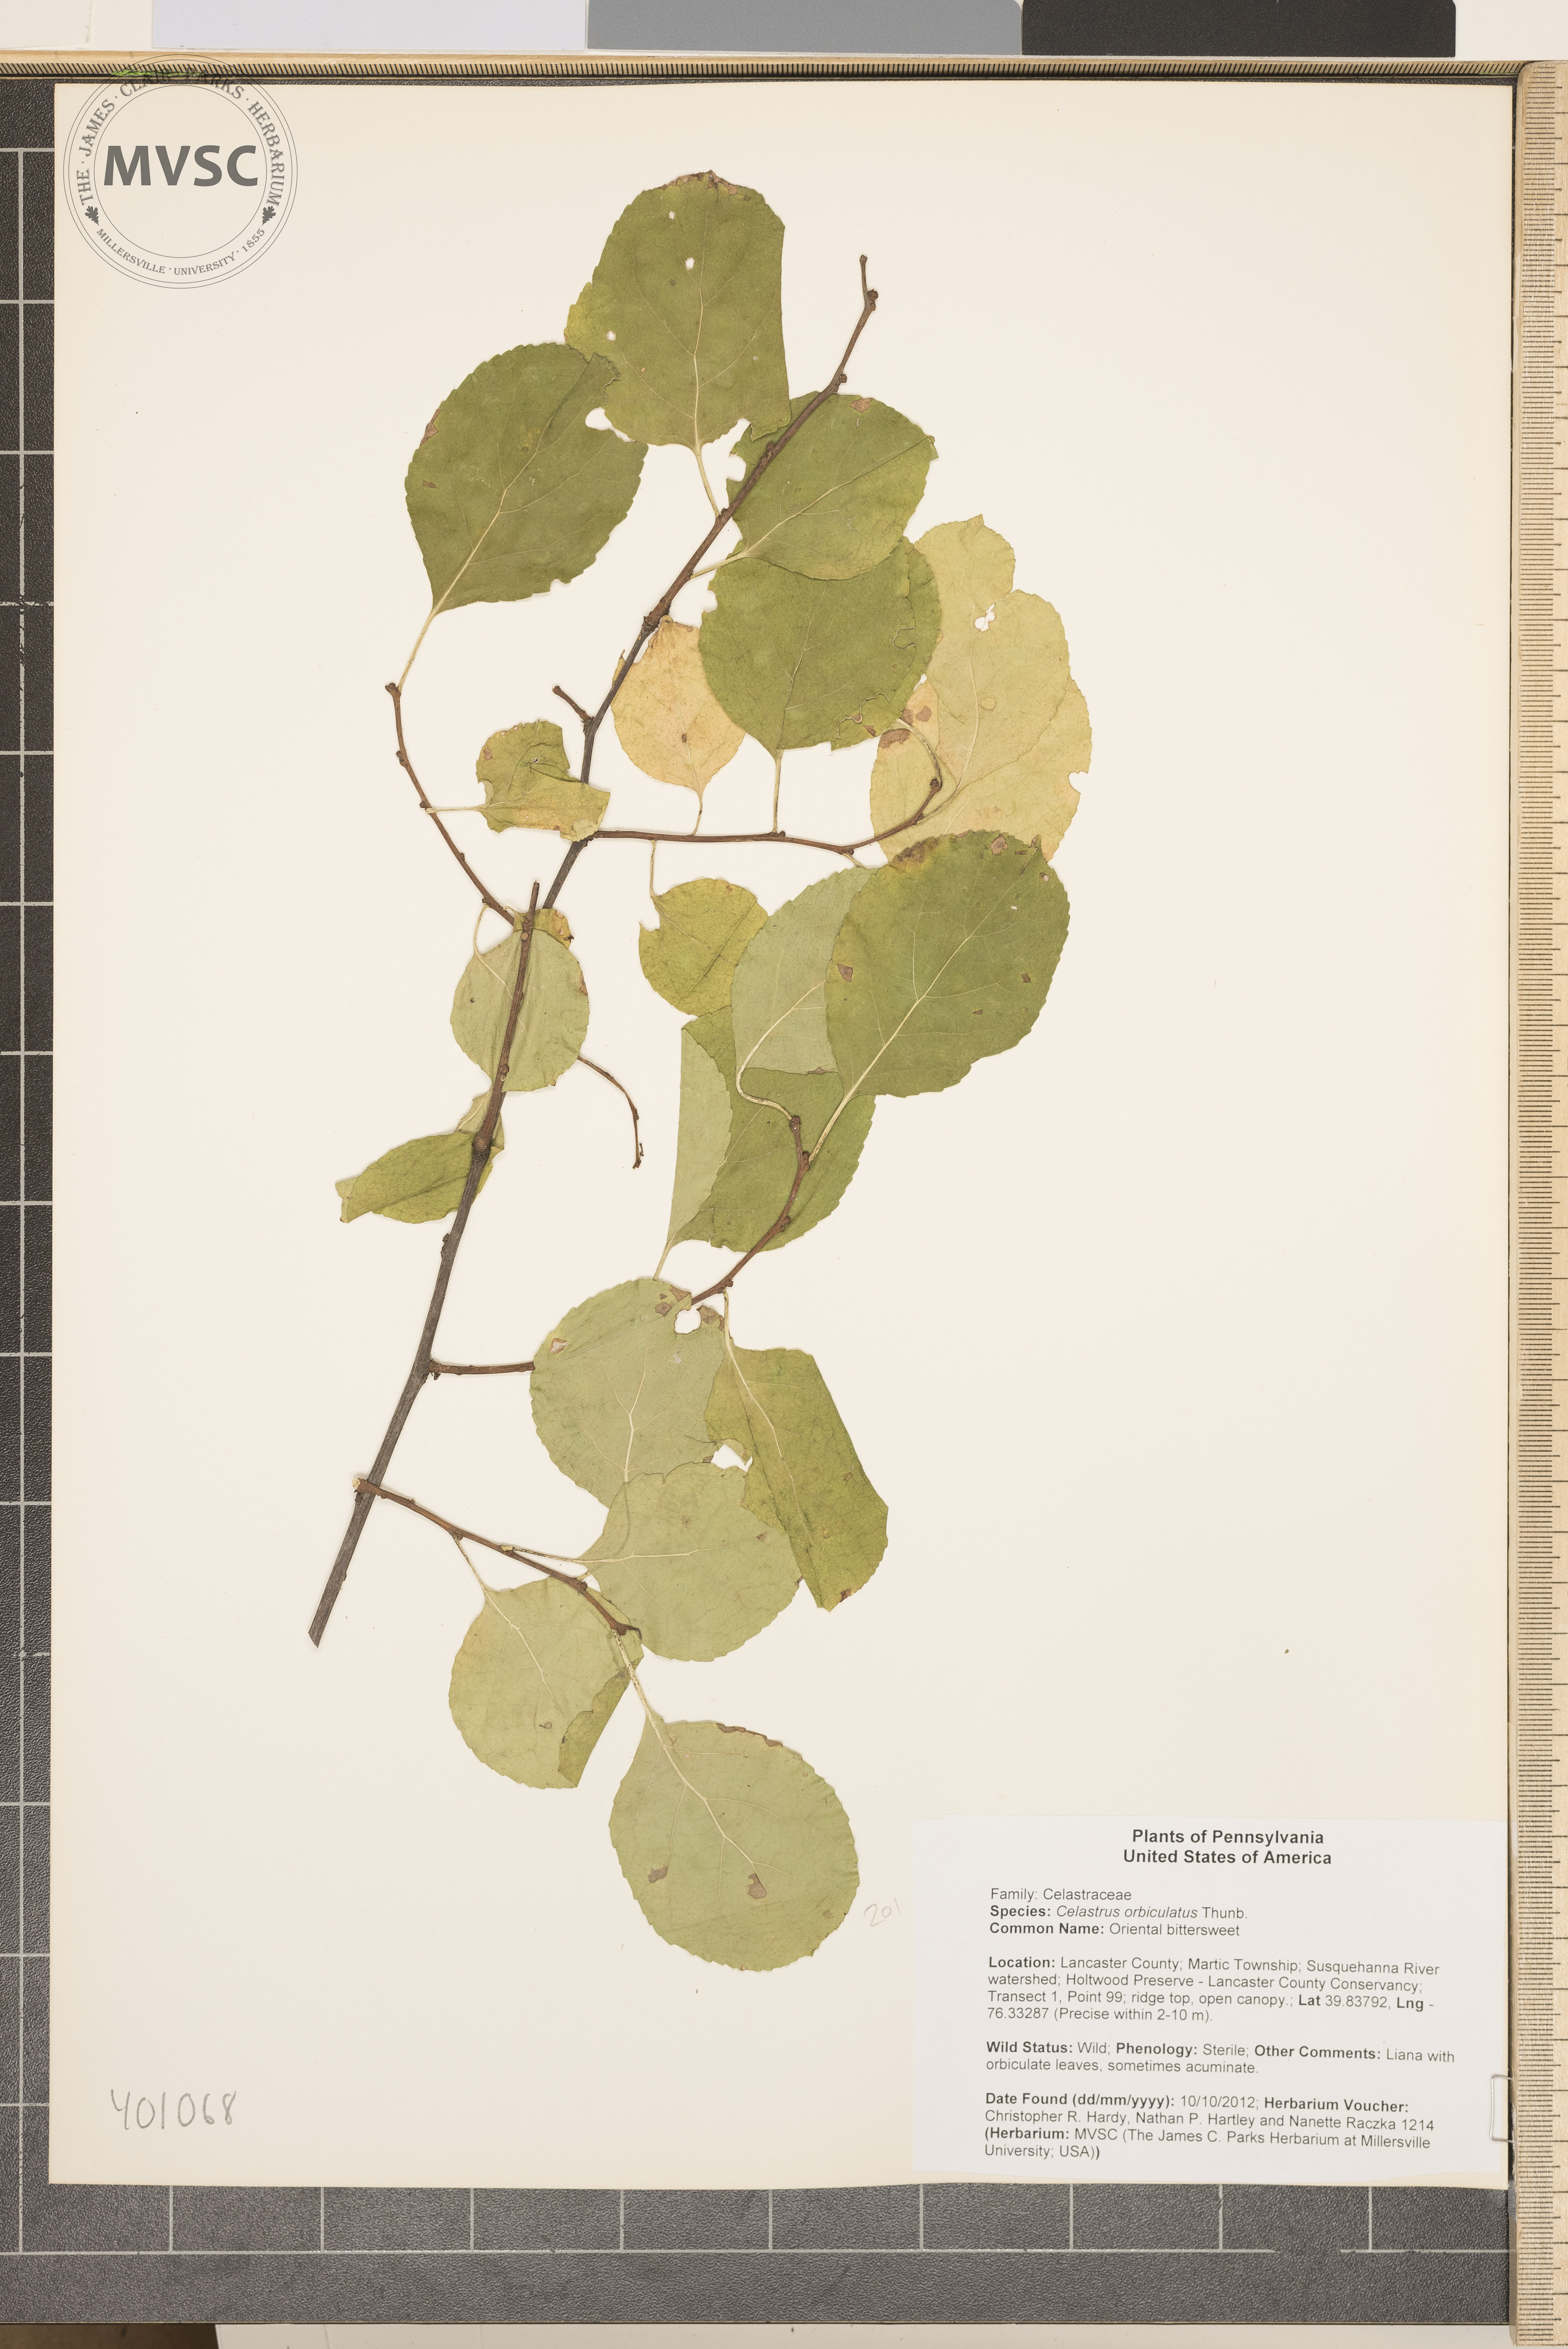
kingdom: Plantae
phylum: Tracheophyta
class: Magnoliopsida
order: Celastrales
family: Celastraceae
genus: Celastrus
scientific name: Celastrus orbiculatus
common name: Oriental bittersweet
